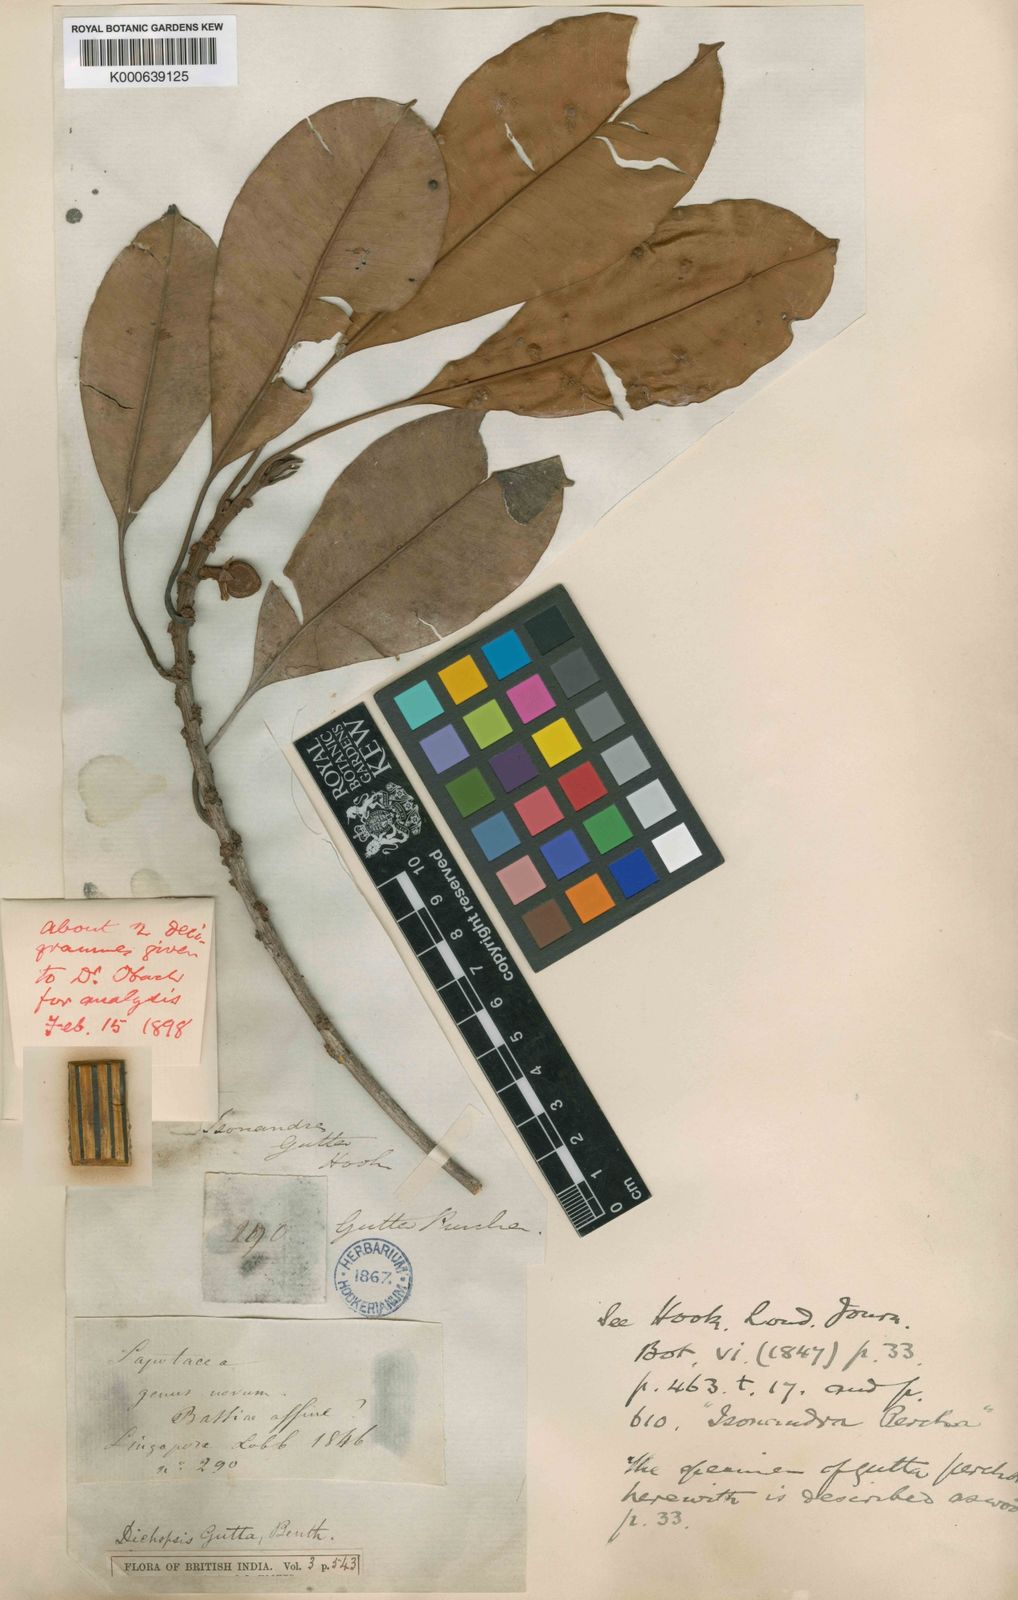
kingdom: Plantae
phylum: Tracheophyta
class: Magnoliopsida
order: Ericales
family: Sapotaceae
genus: Palaquium
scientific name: Palaquium
